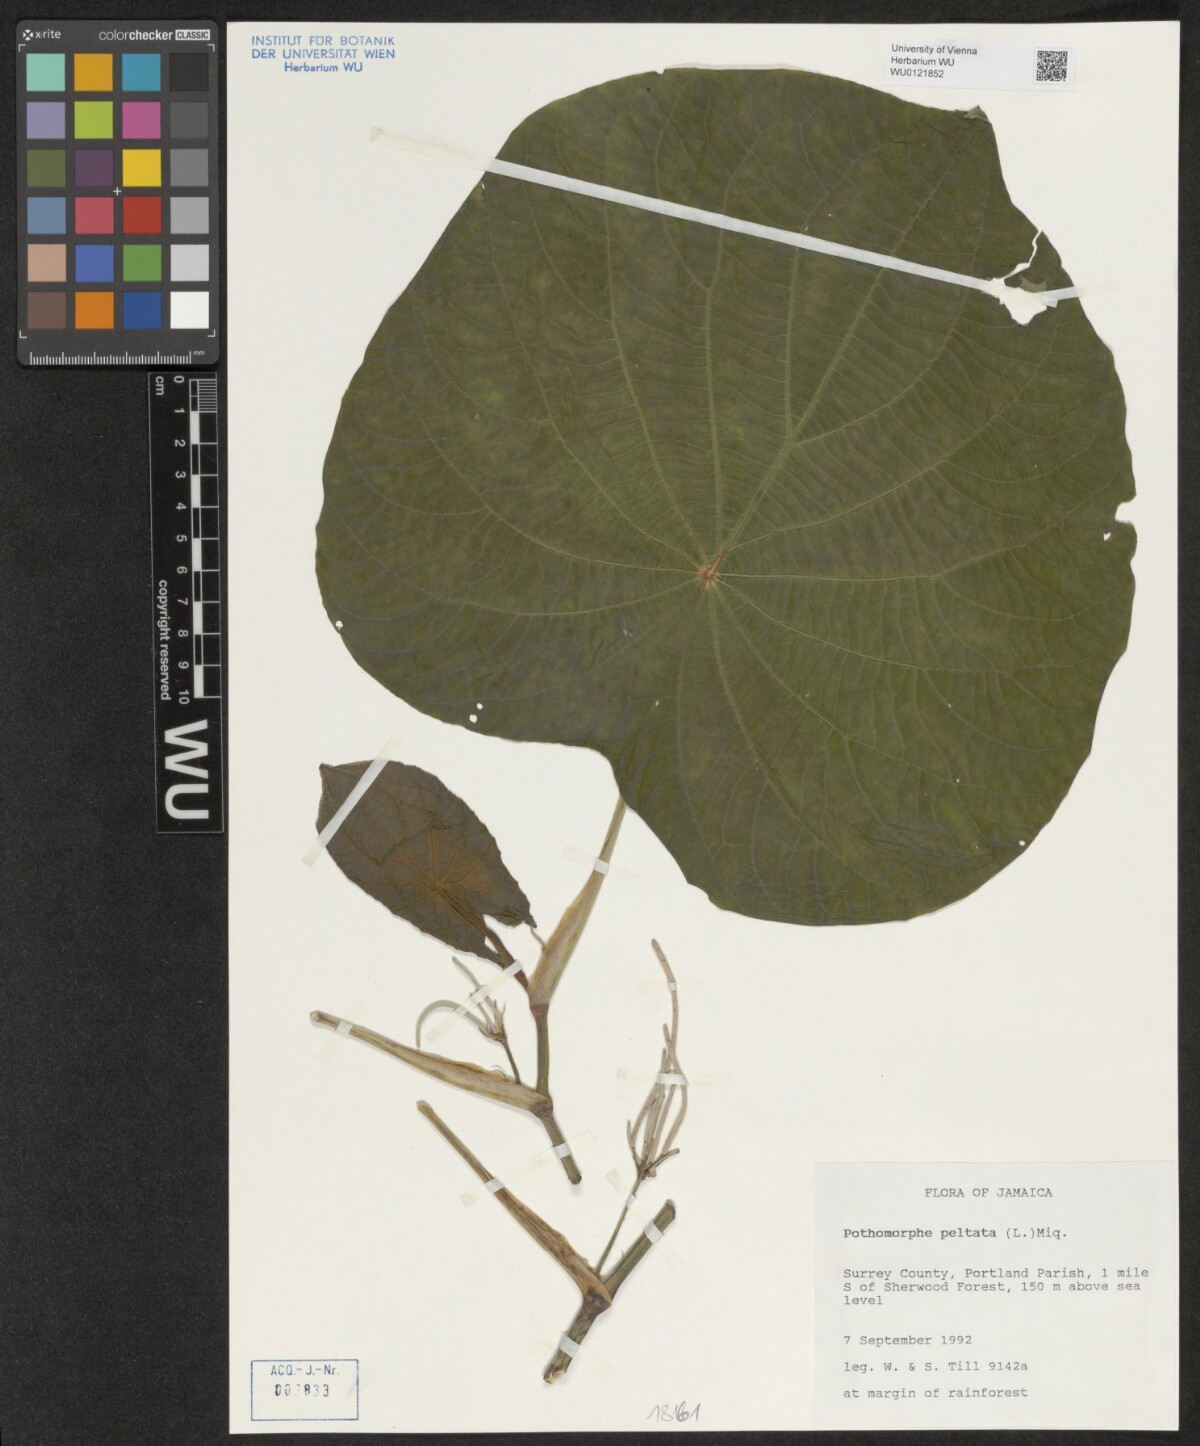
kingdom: Plantae
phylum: Tracheophyta
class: Magnoliopsida
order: Piperales
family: Piperaceae
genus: Piper
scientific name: Piper peltatum
